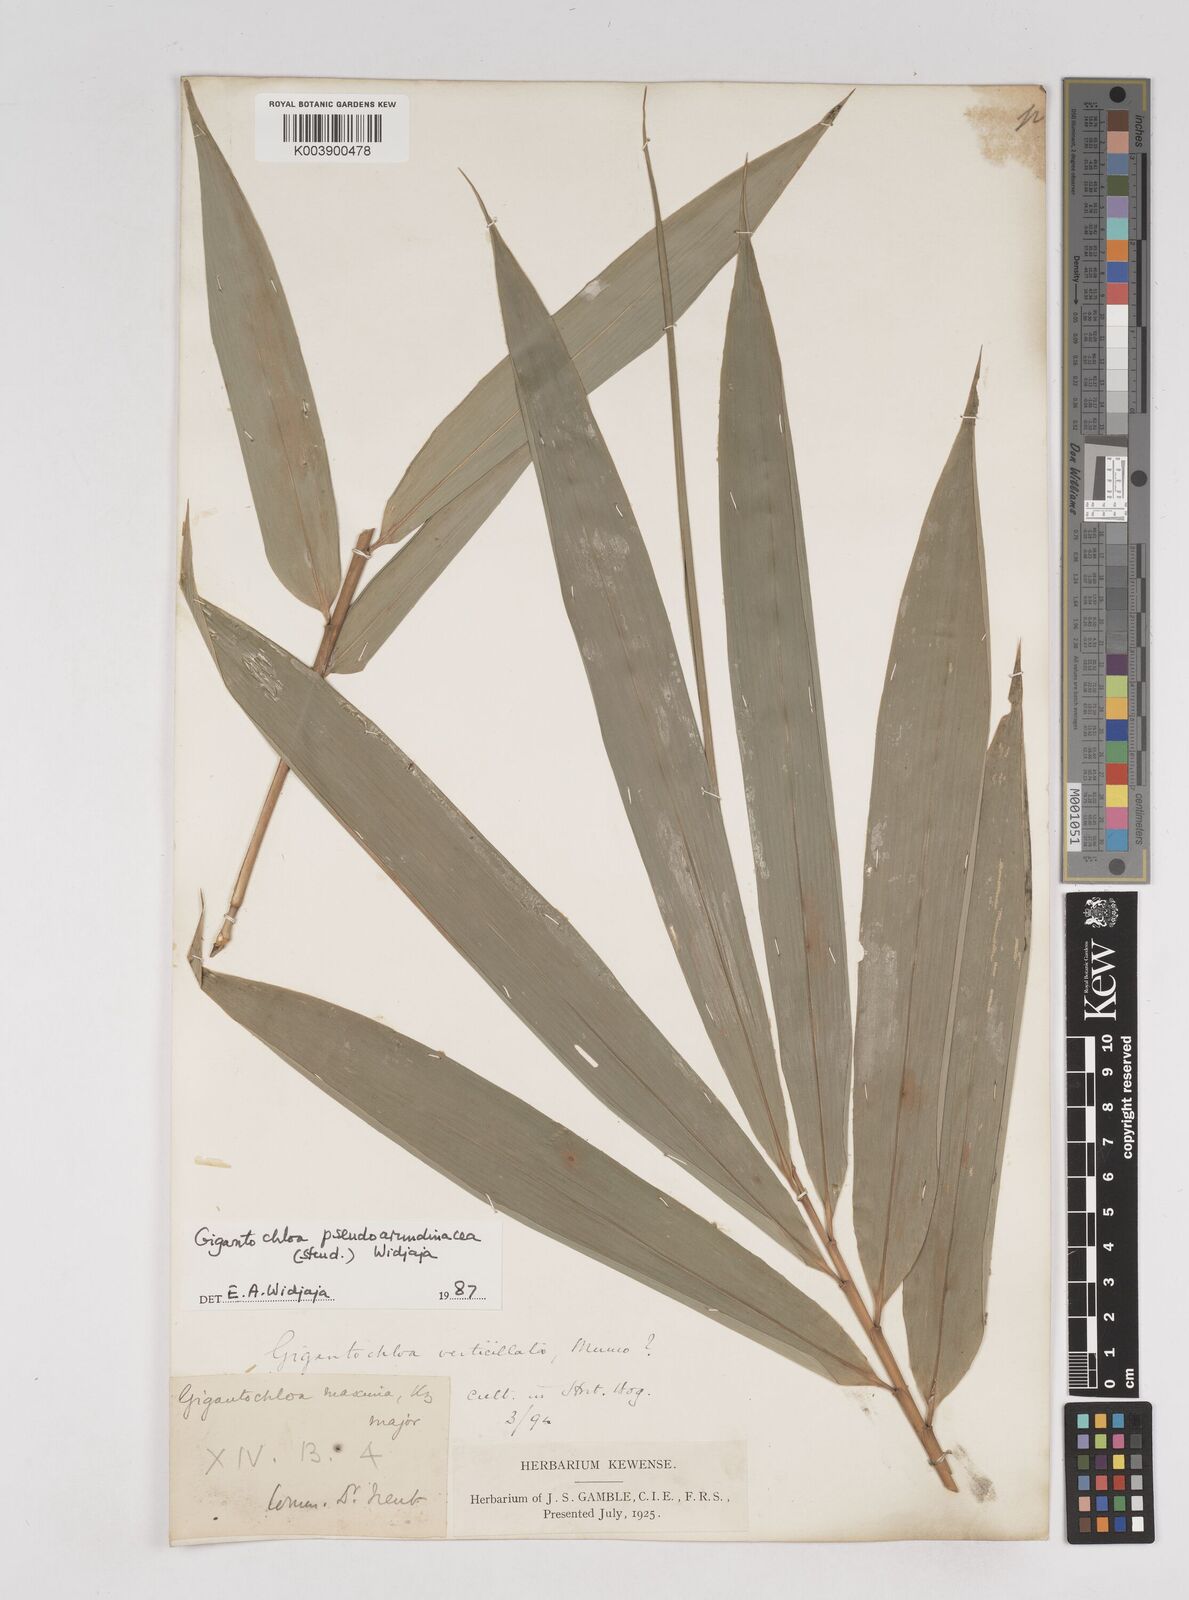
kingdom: Plantae
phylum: Tracheophyta
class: Liliopsida
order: Poales
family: Poaceae
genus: Gigantochloa
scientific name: Gigantochloa verticillata
